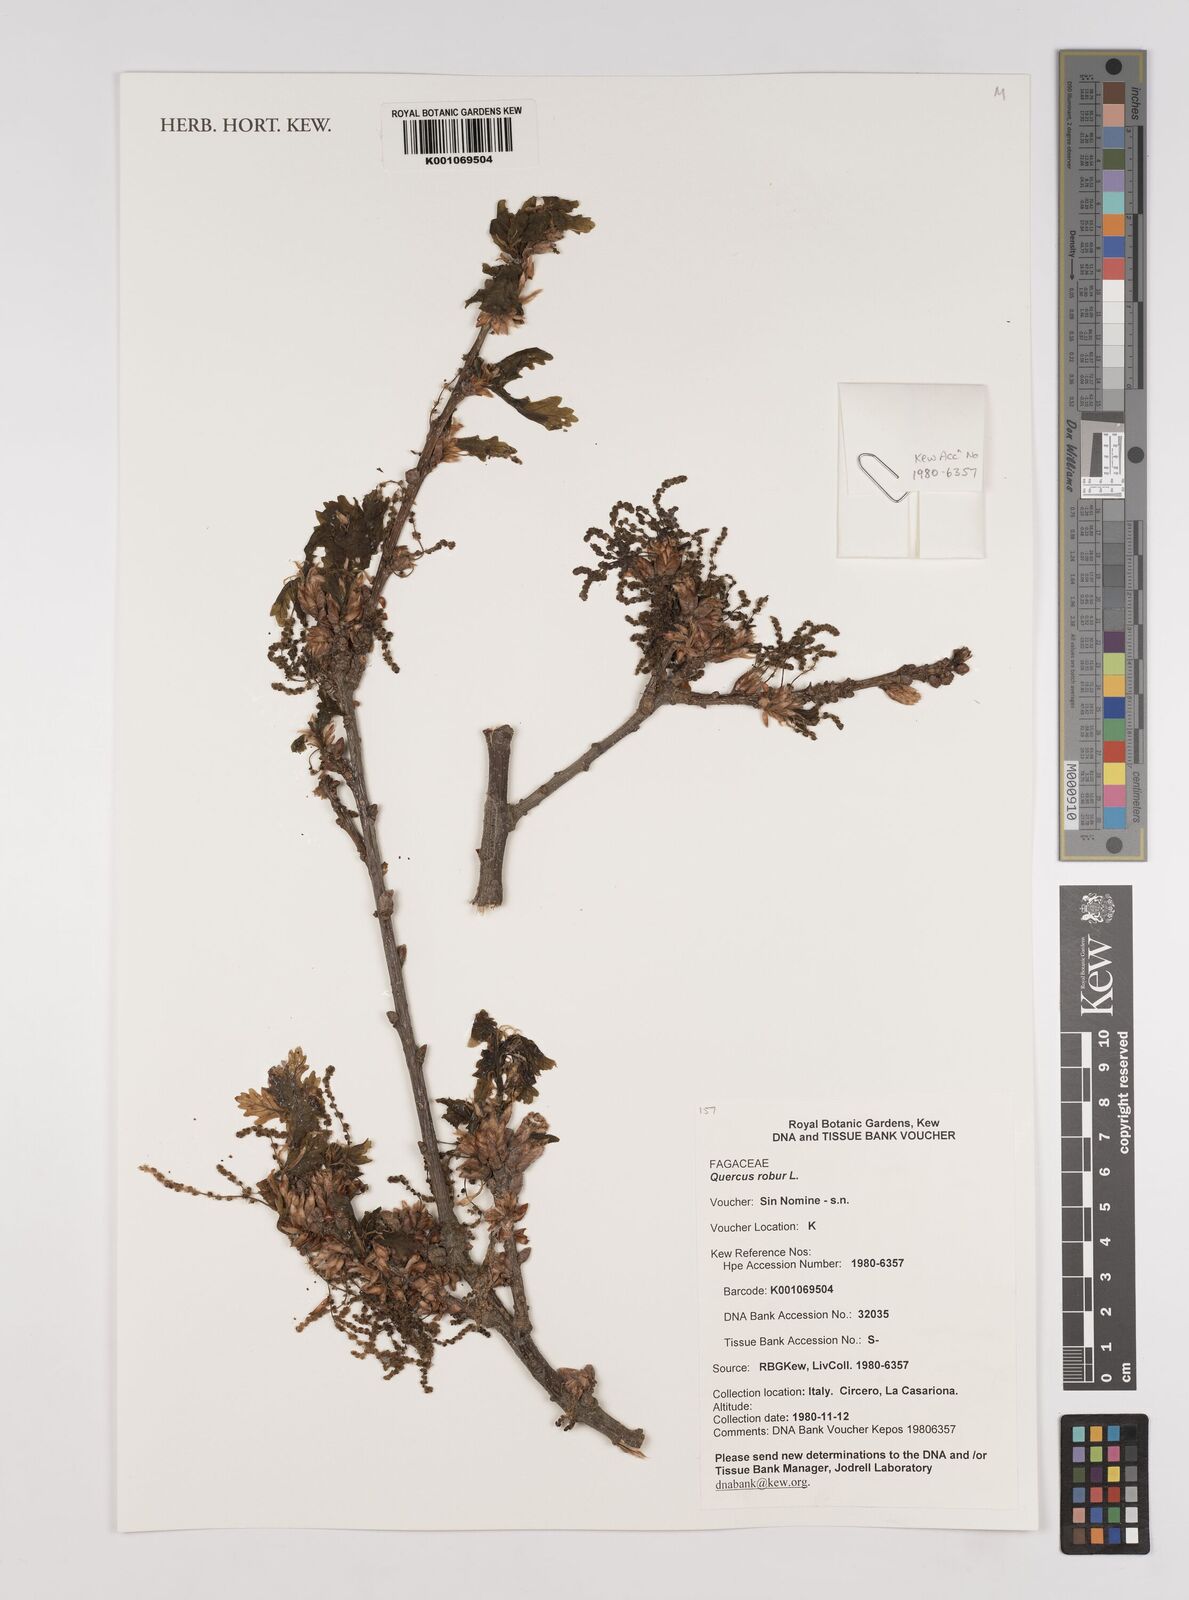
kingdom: Plantae
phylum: Tracheophyta
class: Magnoliopsida
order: Fagales
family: Fagaceae
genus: Quercus
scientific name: Quercus robur
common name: Pedunculate oak
